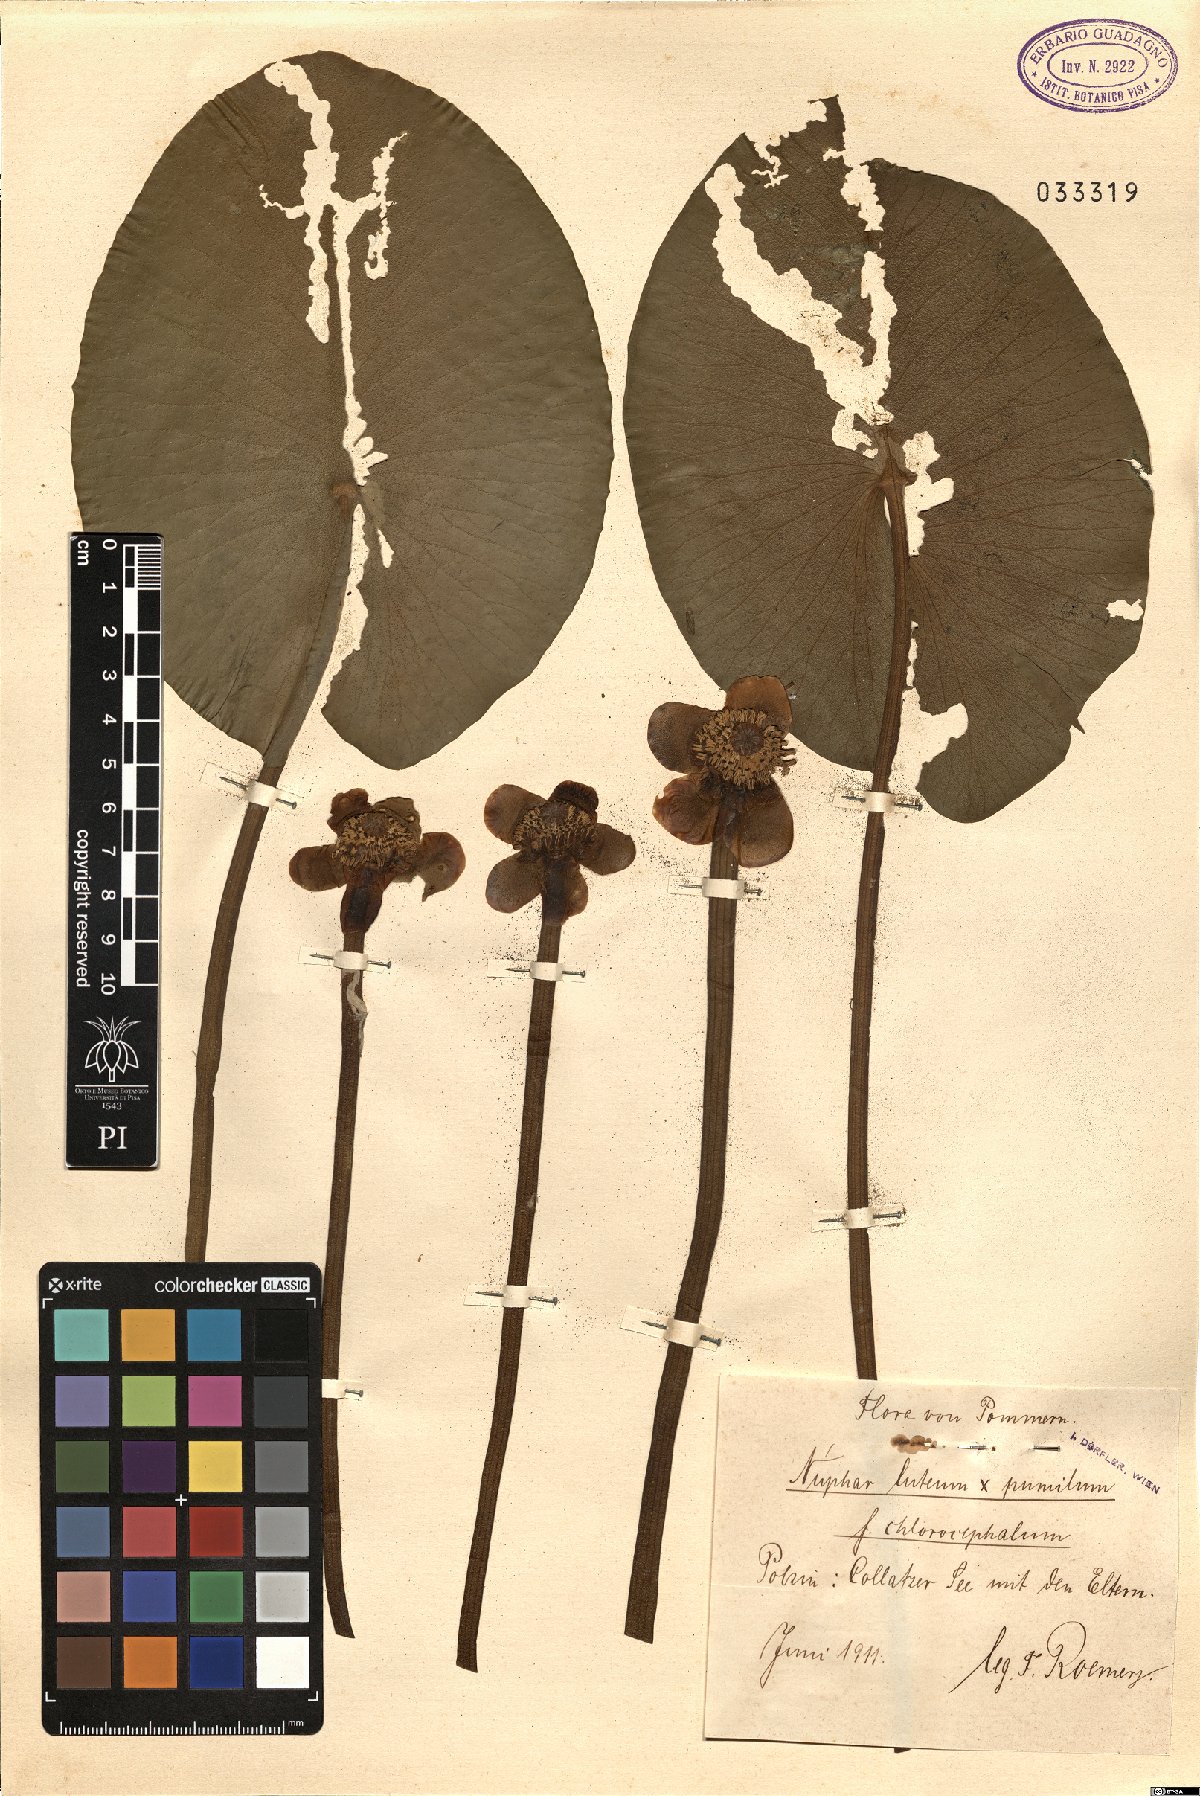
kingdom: Plantae
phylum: Tracheophyta
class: Magnoliopsida
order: Nymphaeales
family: Nymphaeaceae
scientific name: Nymphaeaceae
